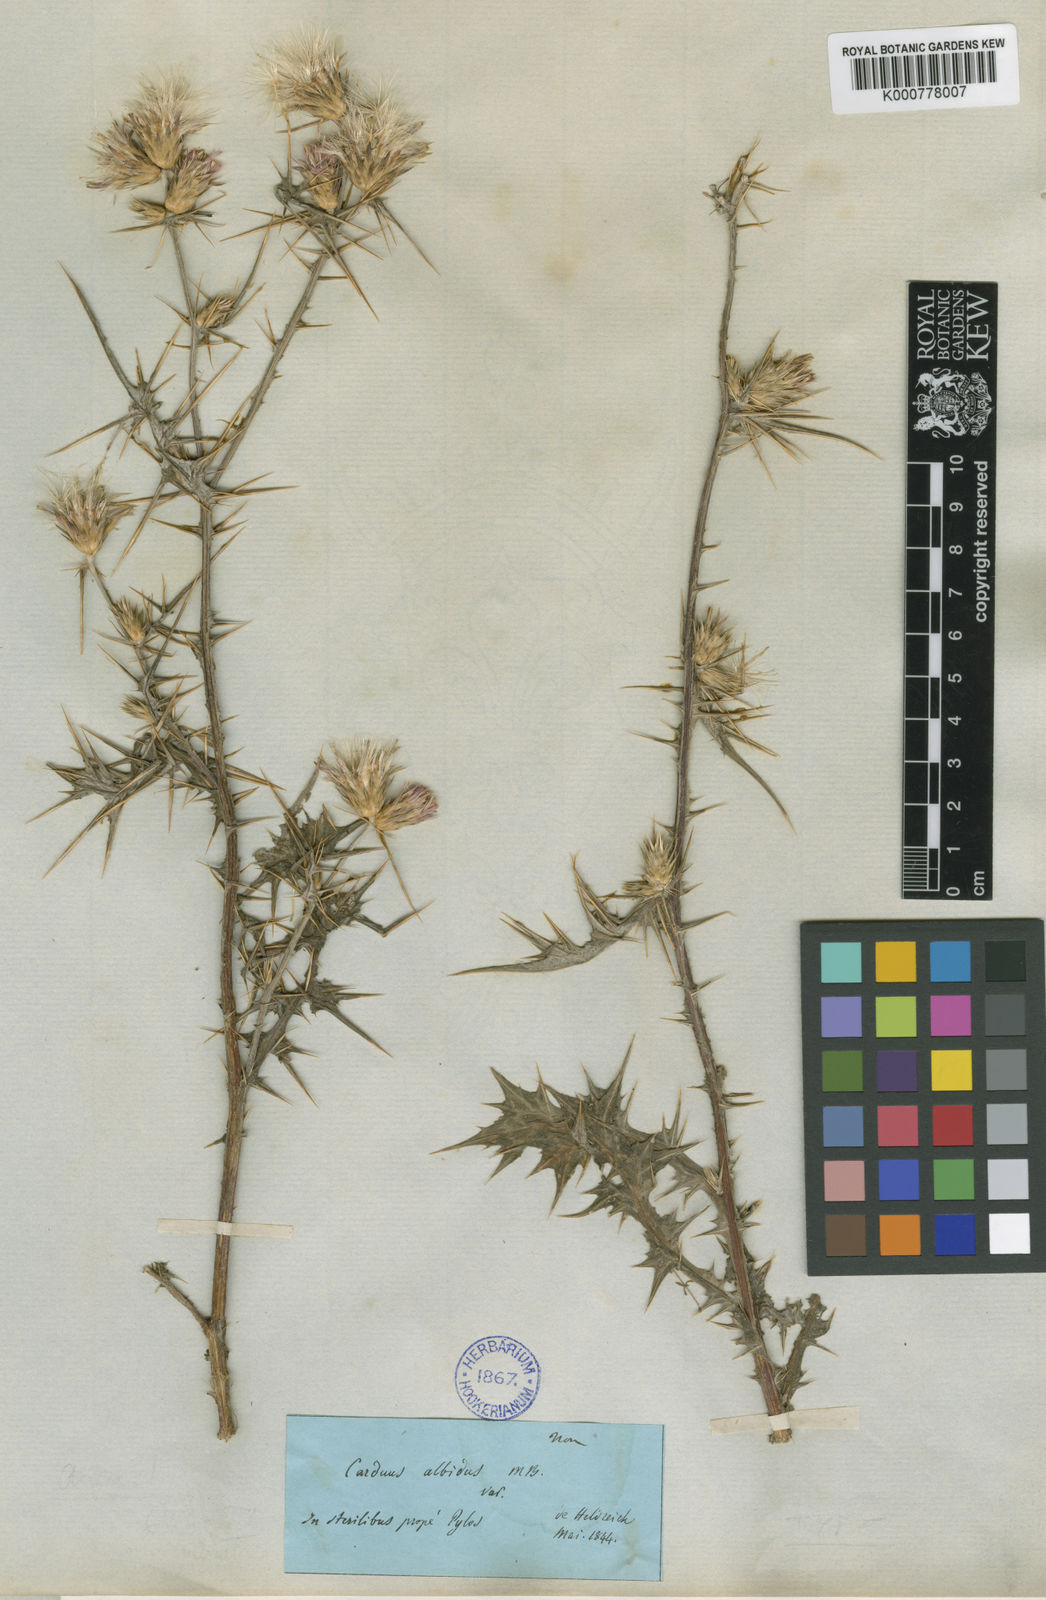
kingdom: Plantae
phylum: Tracheophyta
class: Magnoliopsida
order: Asterales
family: Asteraceae
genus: Carduus
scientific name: Carduus pycnocephalus
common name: Plymouth thistle
